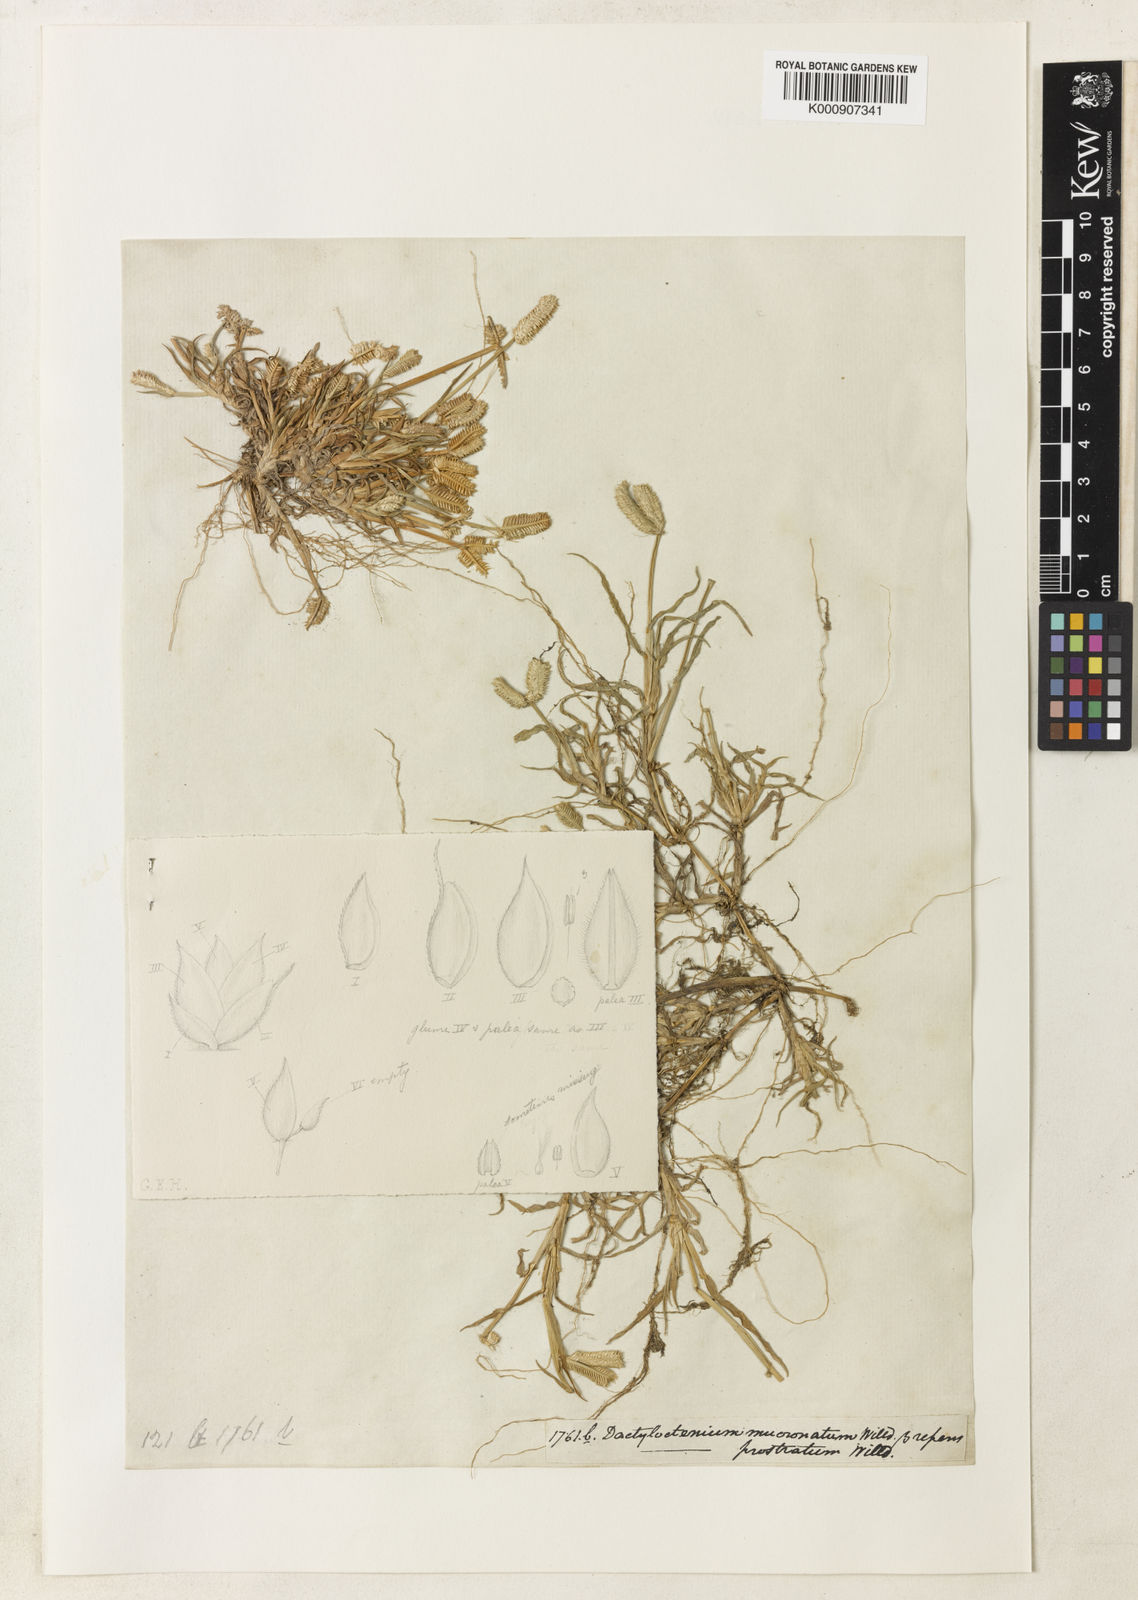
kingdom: Plantae
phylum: Tracheophyta
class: Liliopsida
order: Poales
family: Poaceae
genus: Dactyloctenium
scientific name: Dactyloctenium
